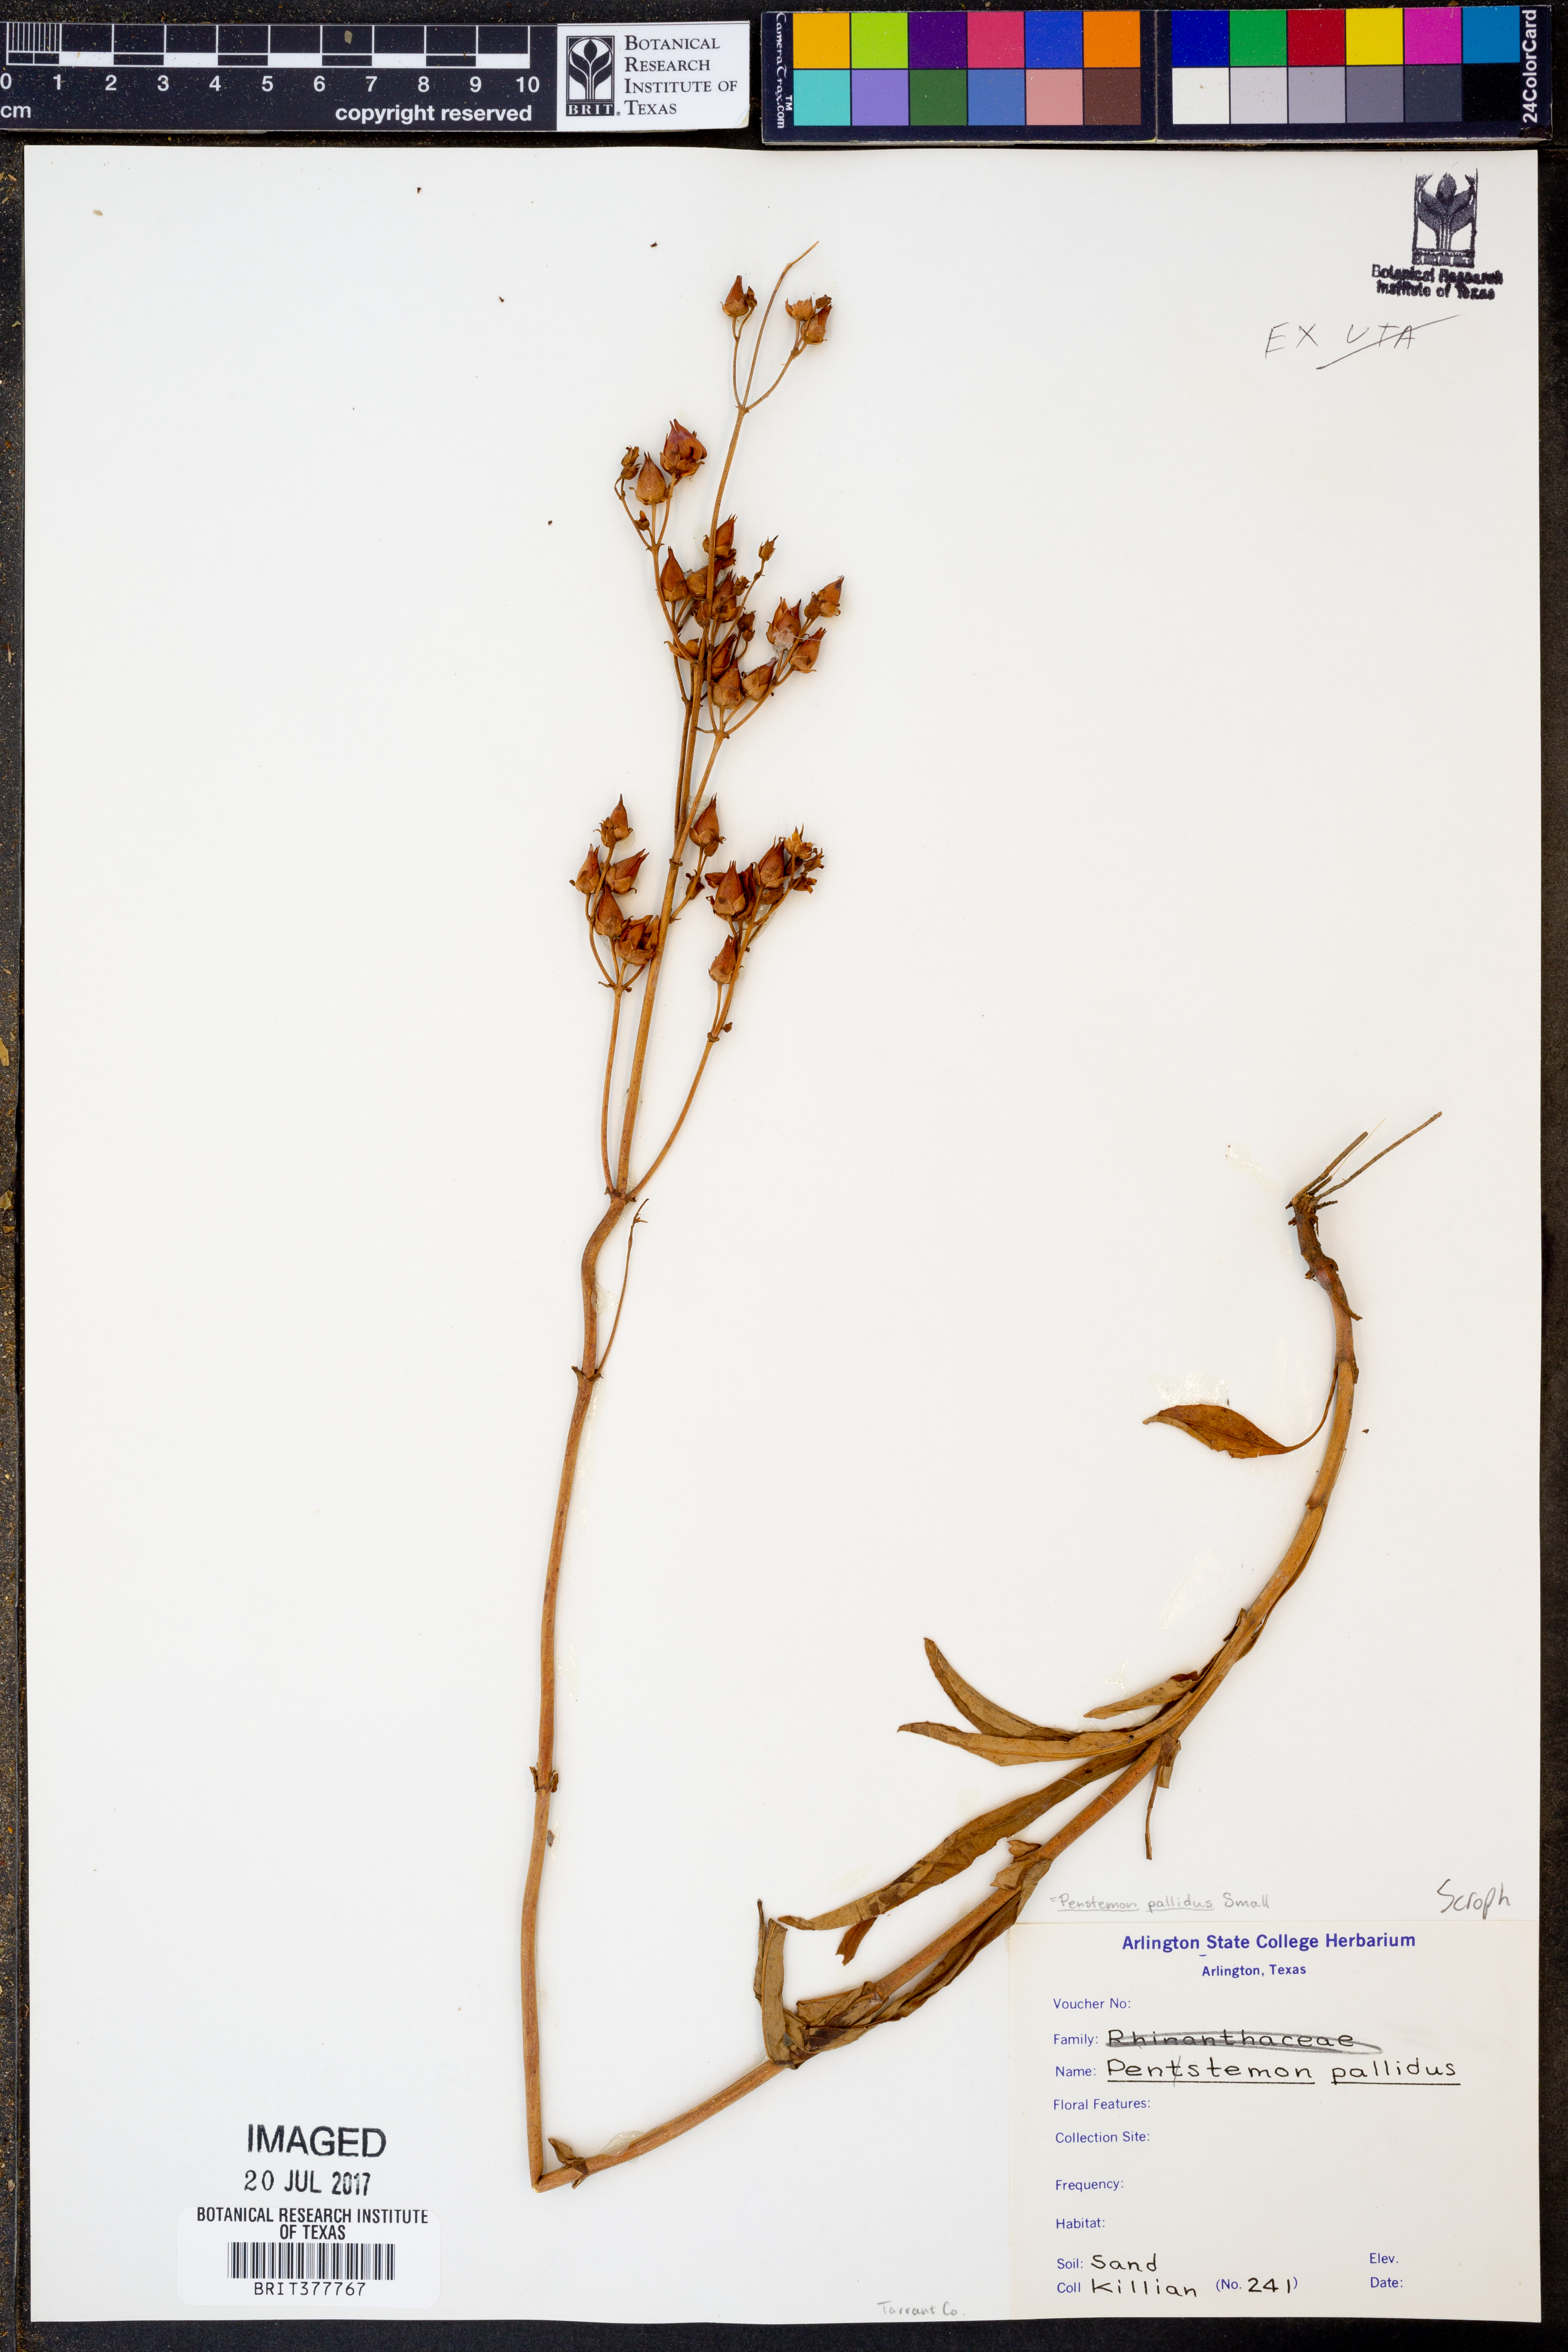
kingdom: Plantae
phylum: Tracheophyta
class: Magnoliopsida
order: Lamiales
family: Plantaginaceae
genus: Penstemon
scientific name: Penstemon pallidus
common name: Pale beardtongue
